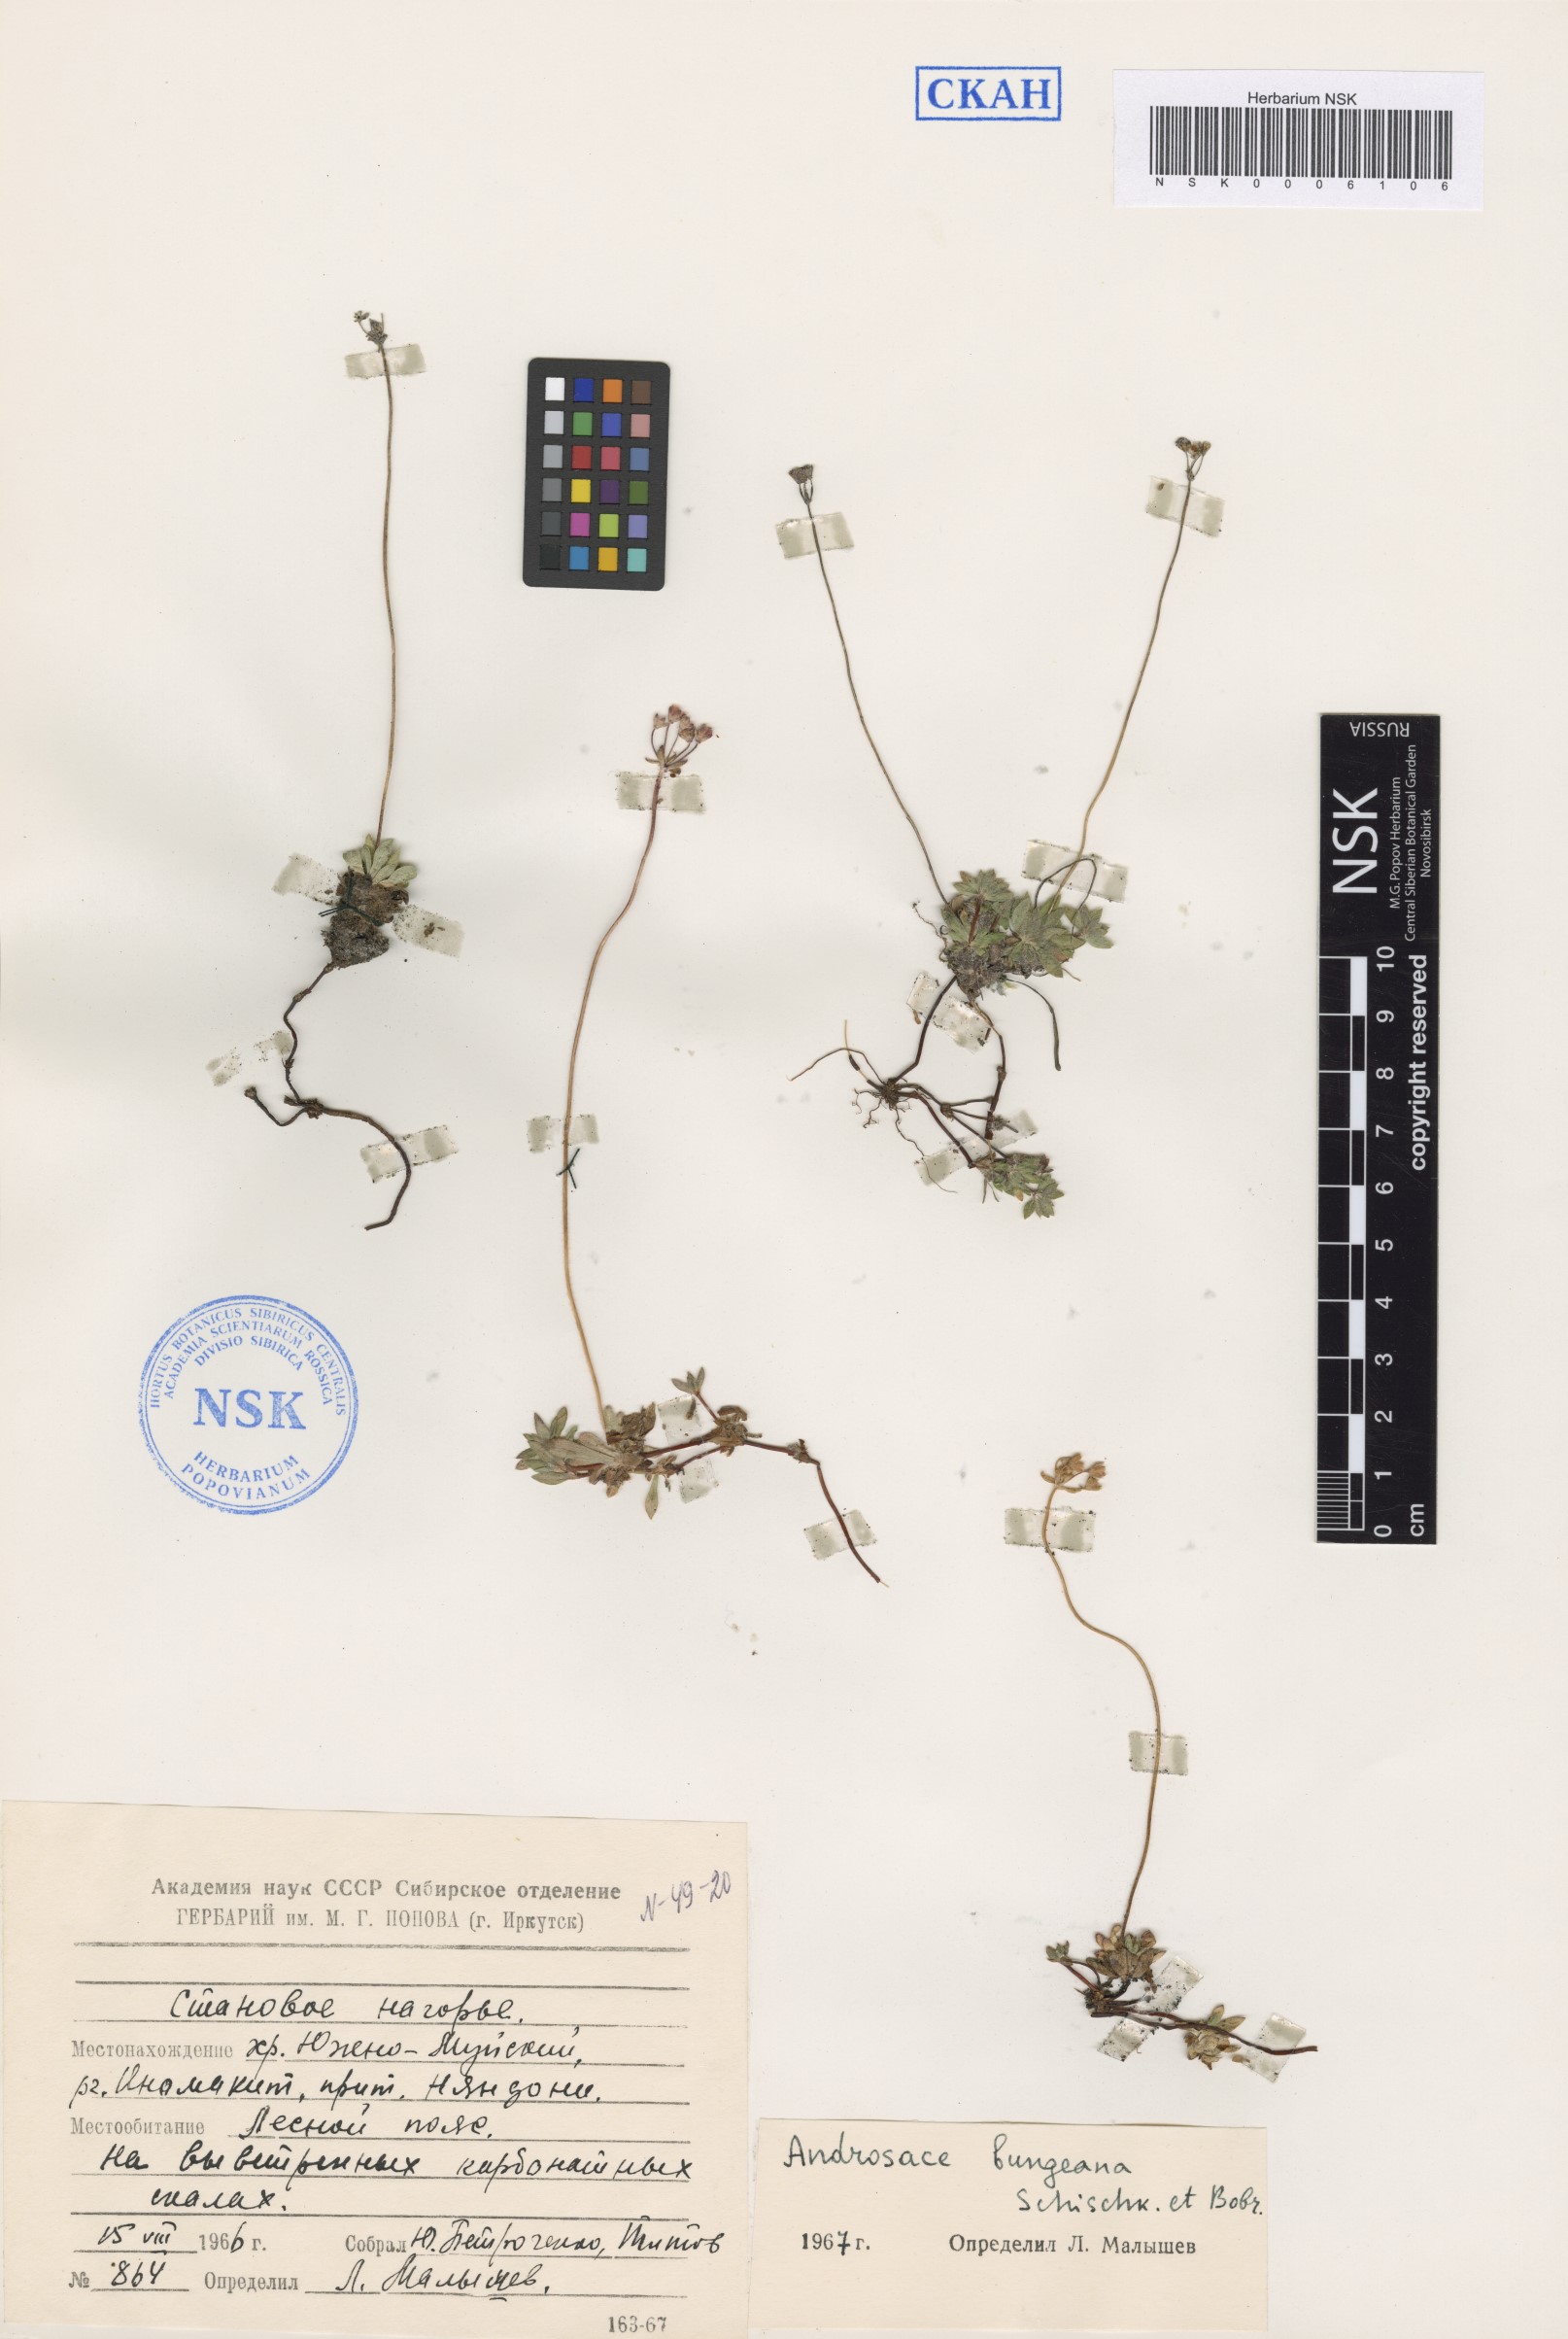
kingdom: Plantae
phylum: Tracheophyta
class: Magnoliopsida
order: Ericales
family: Primulaceae
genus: Androsace
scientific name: Androsace bungeana
